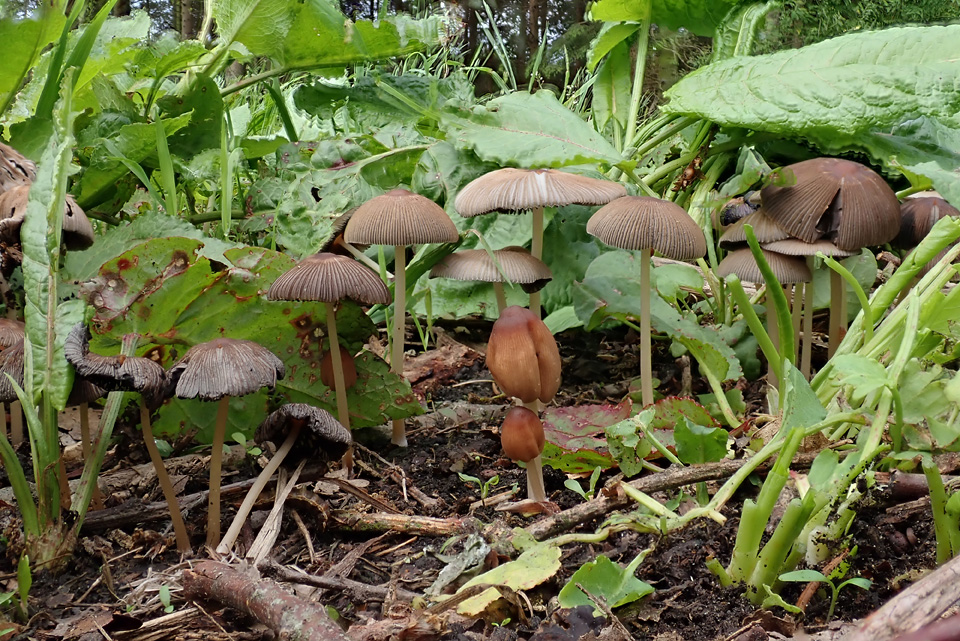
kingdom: Fungi
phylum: Basidiomycota
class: Agaricomycetes
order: Agaricales
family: Psathyrellaceae
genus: Parasola
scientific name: Parasola auricoma
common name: hansens hjulhat
